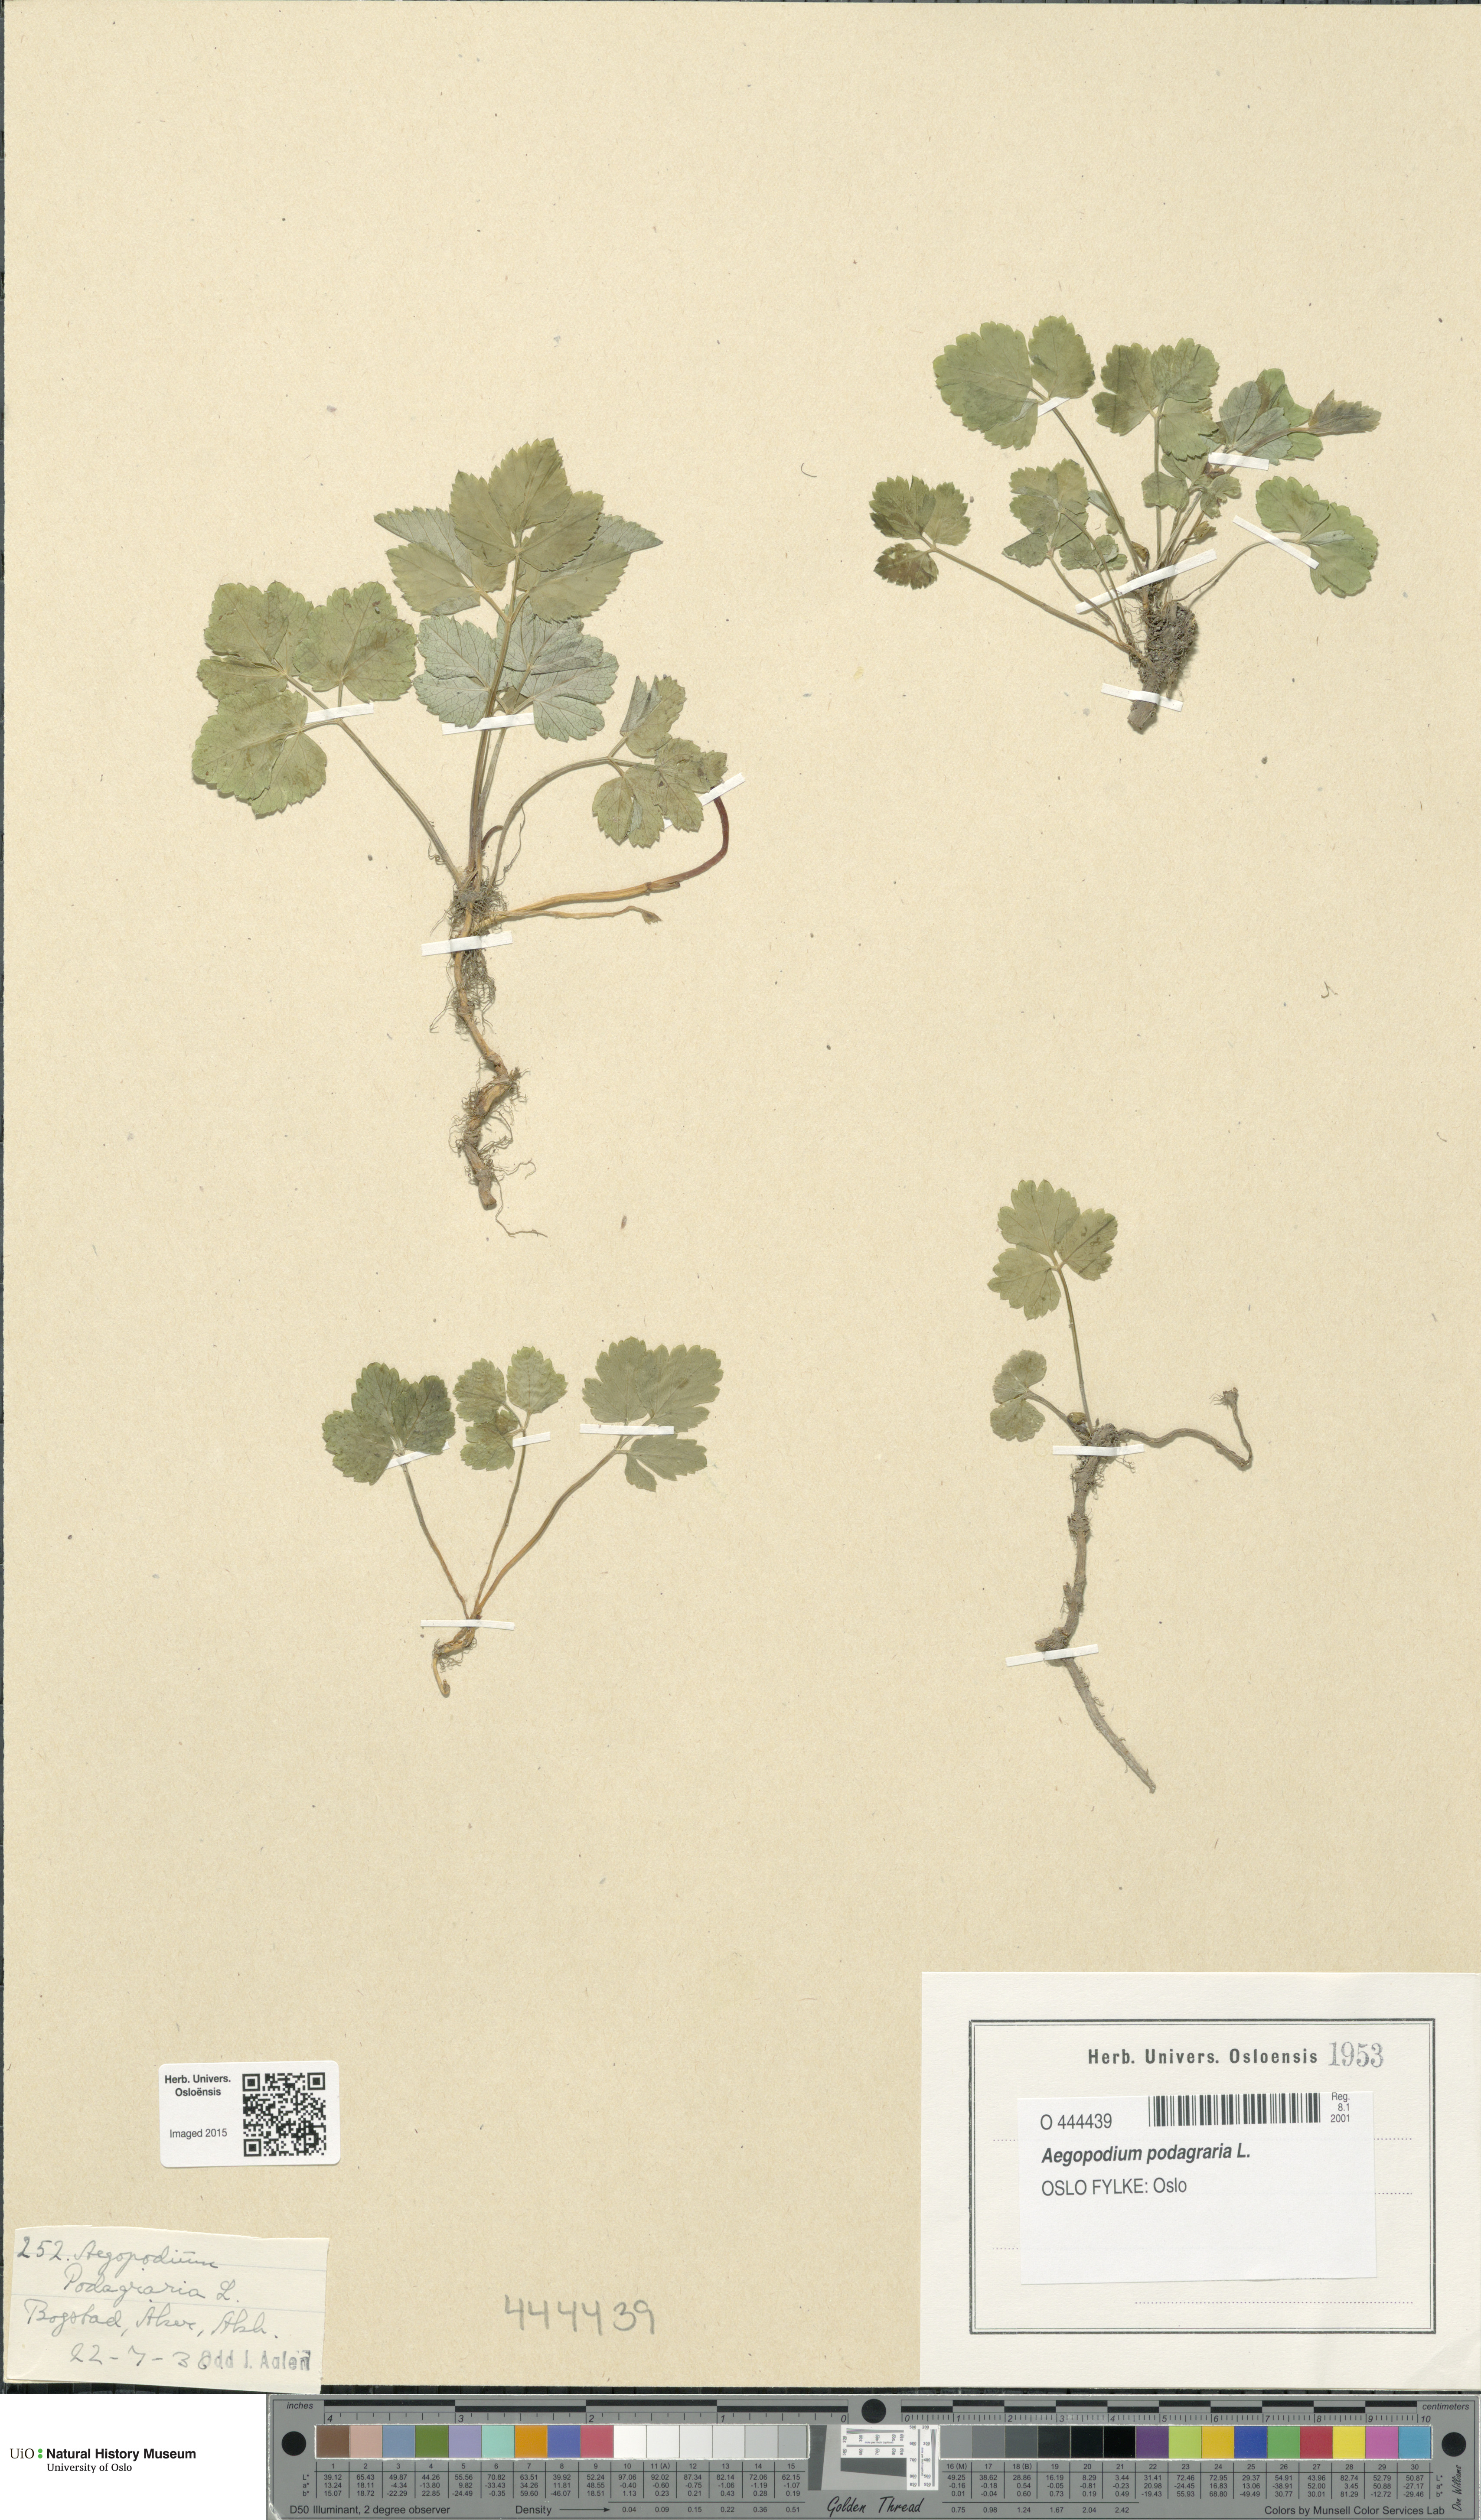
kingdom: Plantae
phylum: Tracheophyta
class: Magnoliopsida
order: Apiales
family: Apiaceae
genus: Aegopodium
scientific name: Aegopodium podagraria
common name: Ground-elder
